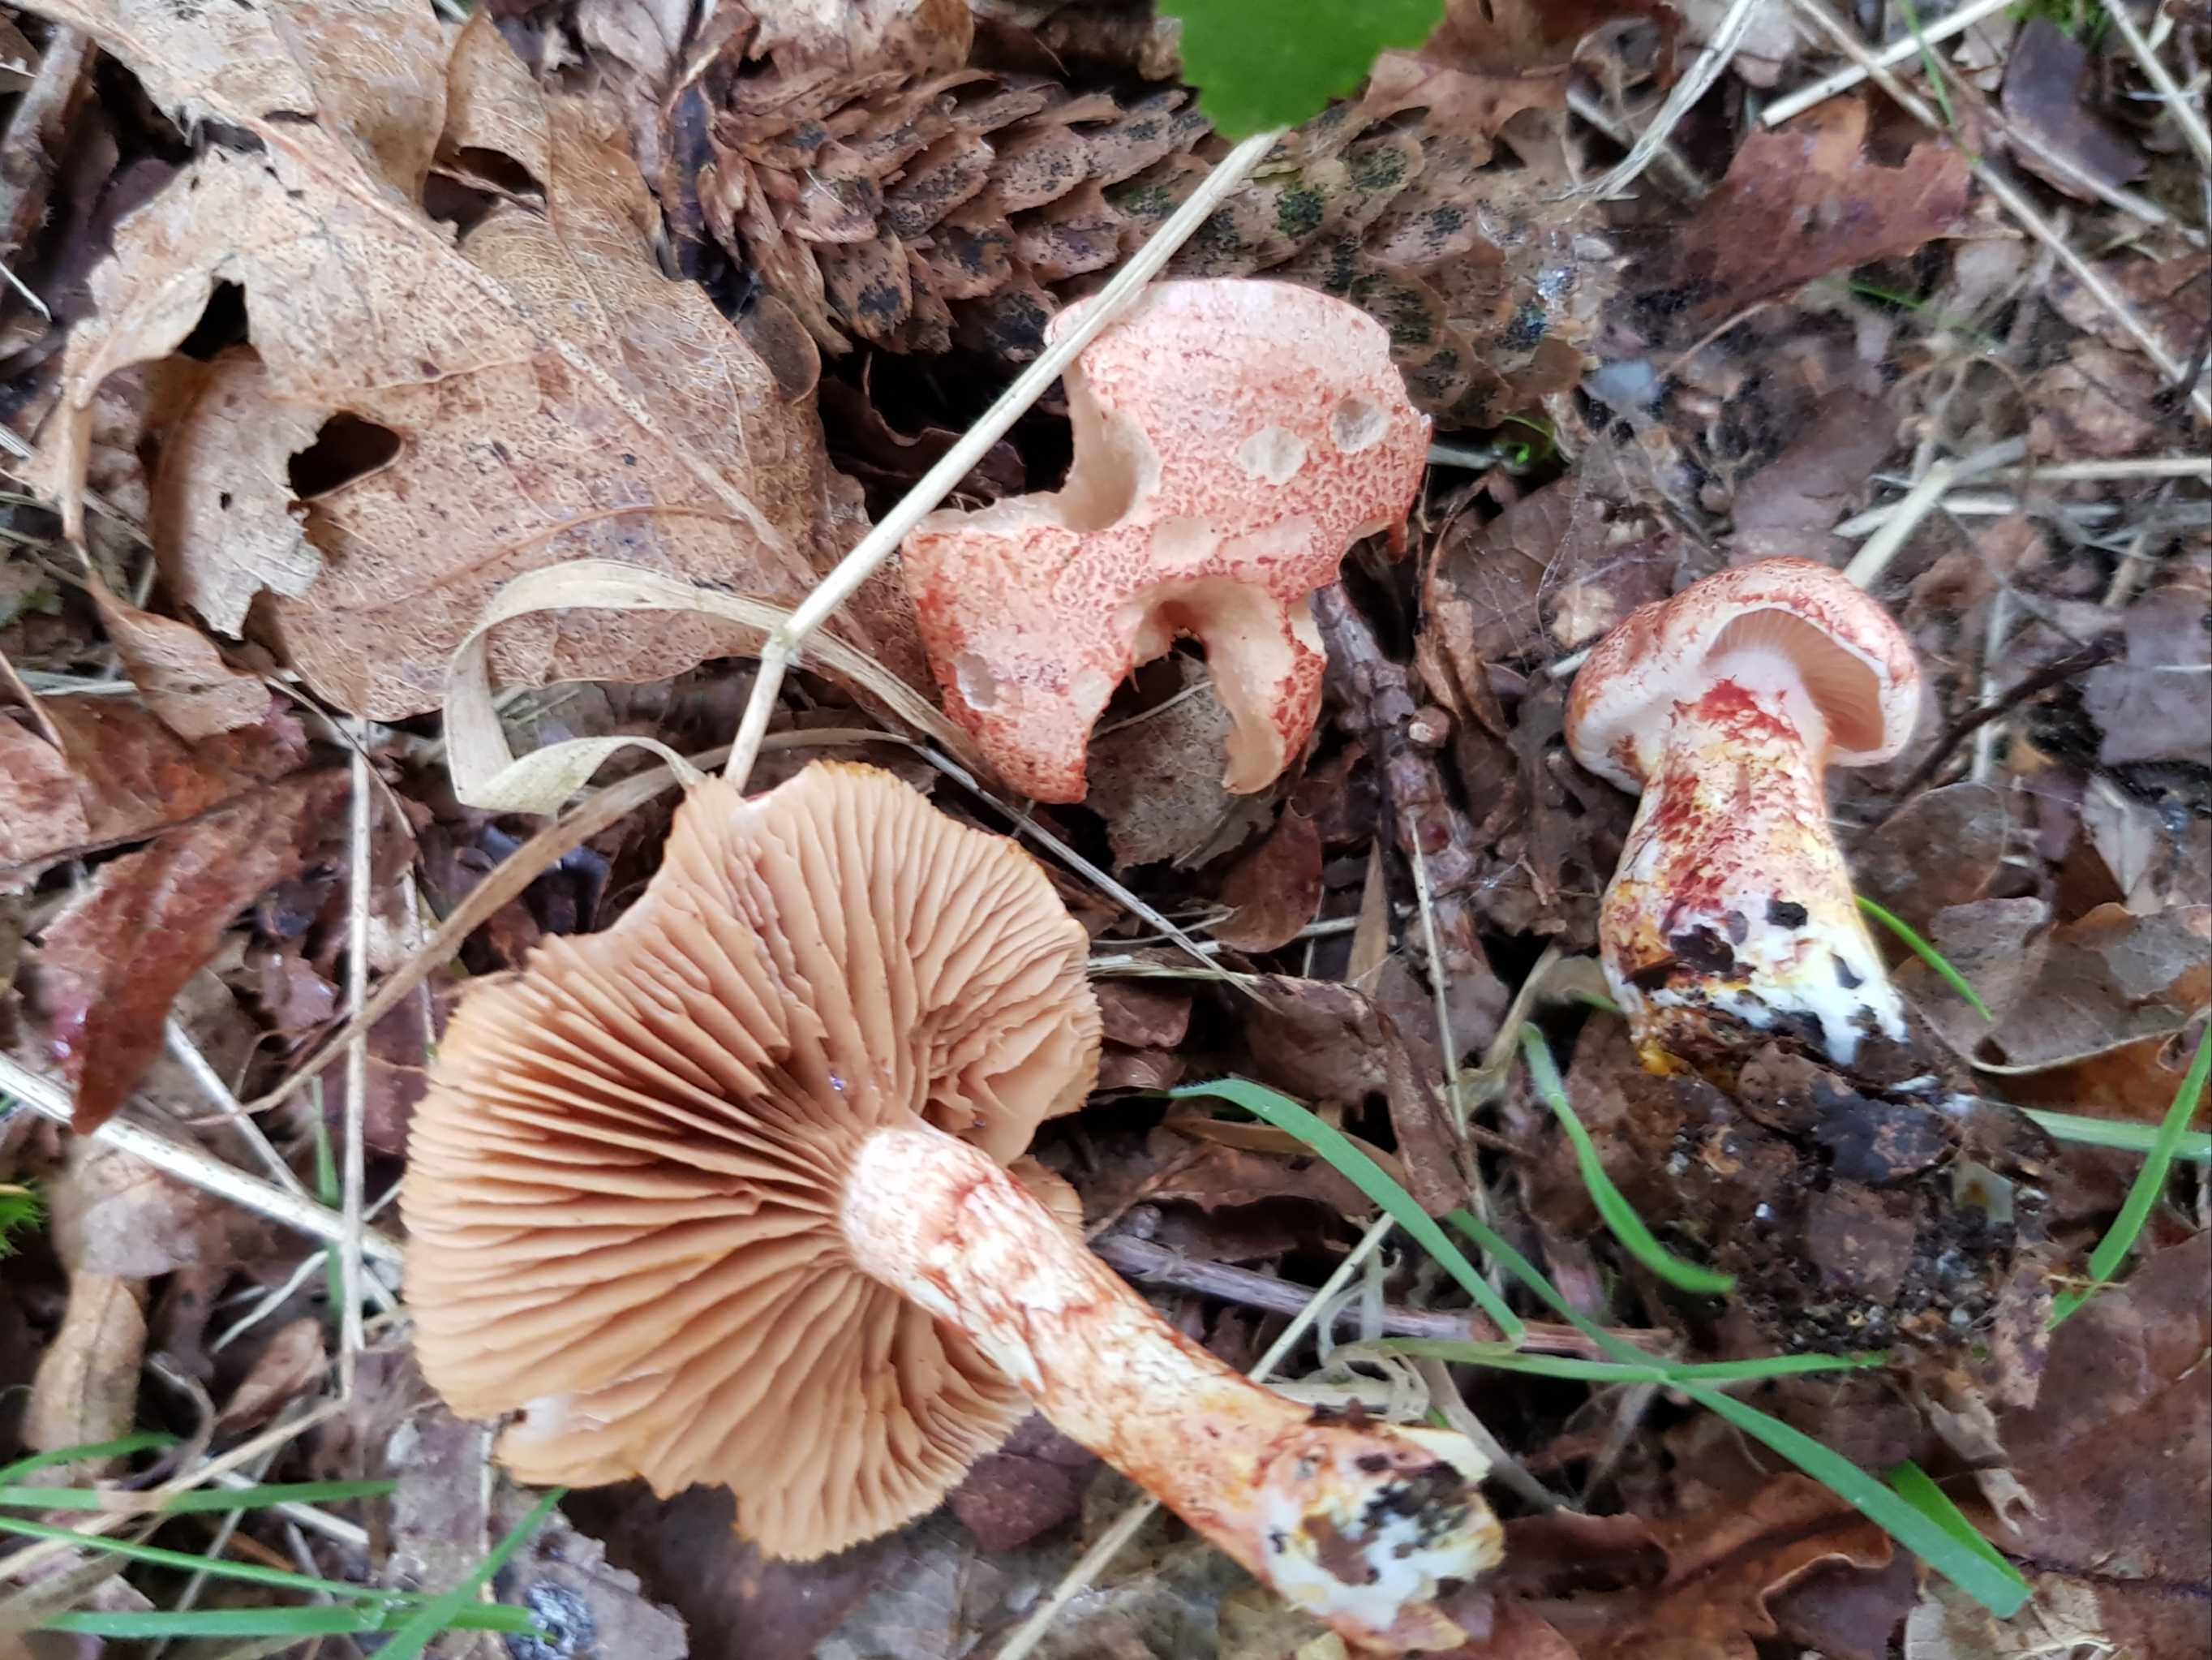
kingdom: Fungi
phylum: Basidiomycota
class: Agaricomycetes
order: Agaricales
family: Cortinariaceae
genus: Cortinarius
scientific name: Cortinarius bolaris
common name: cinnoberskællet slørhat
